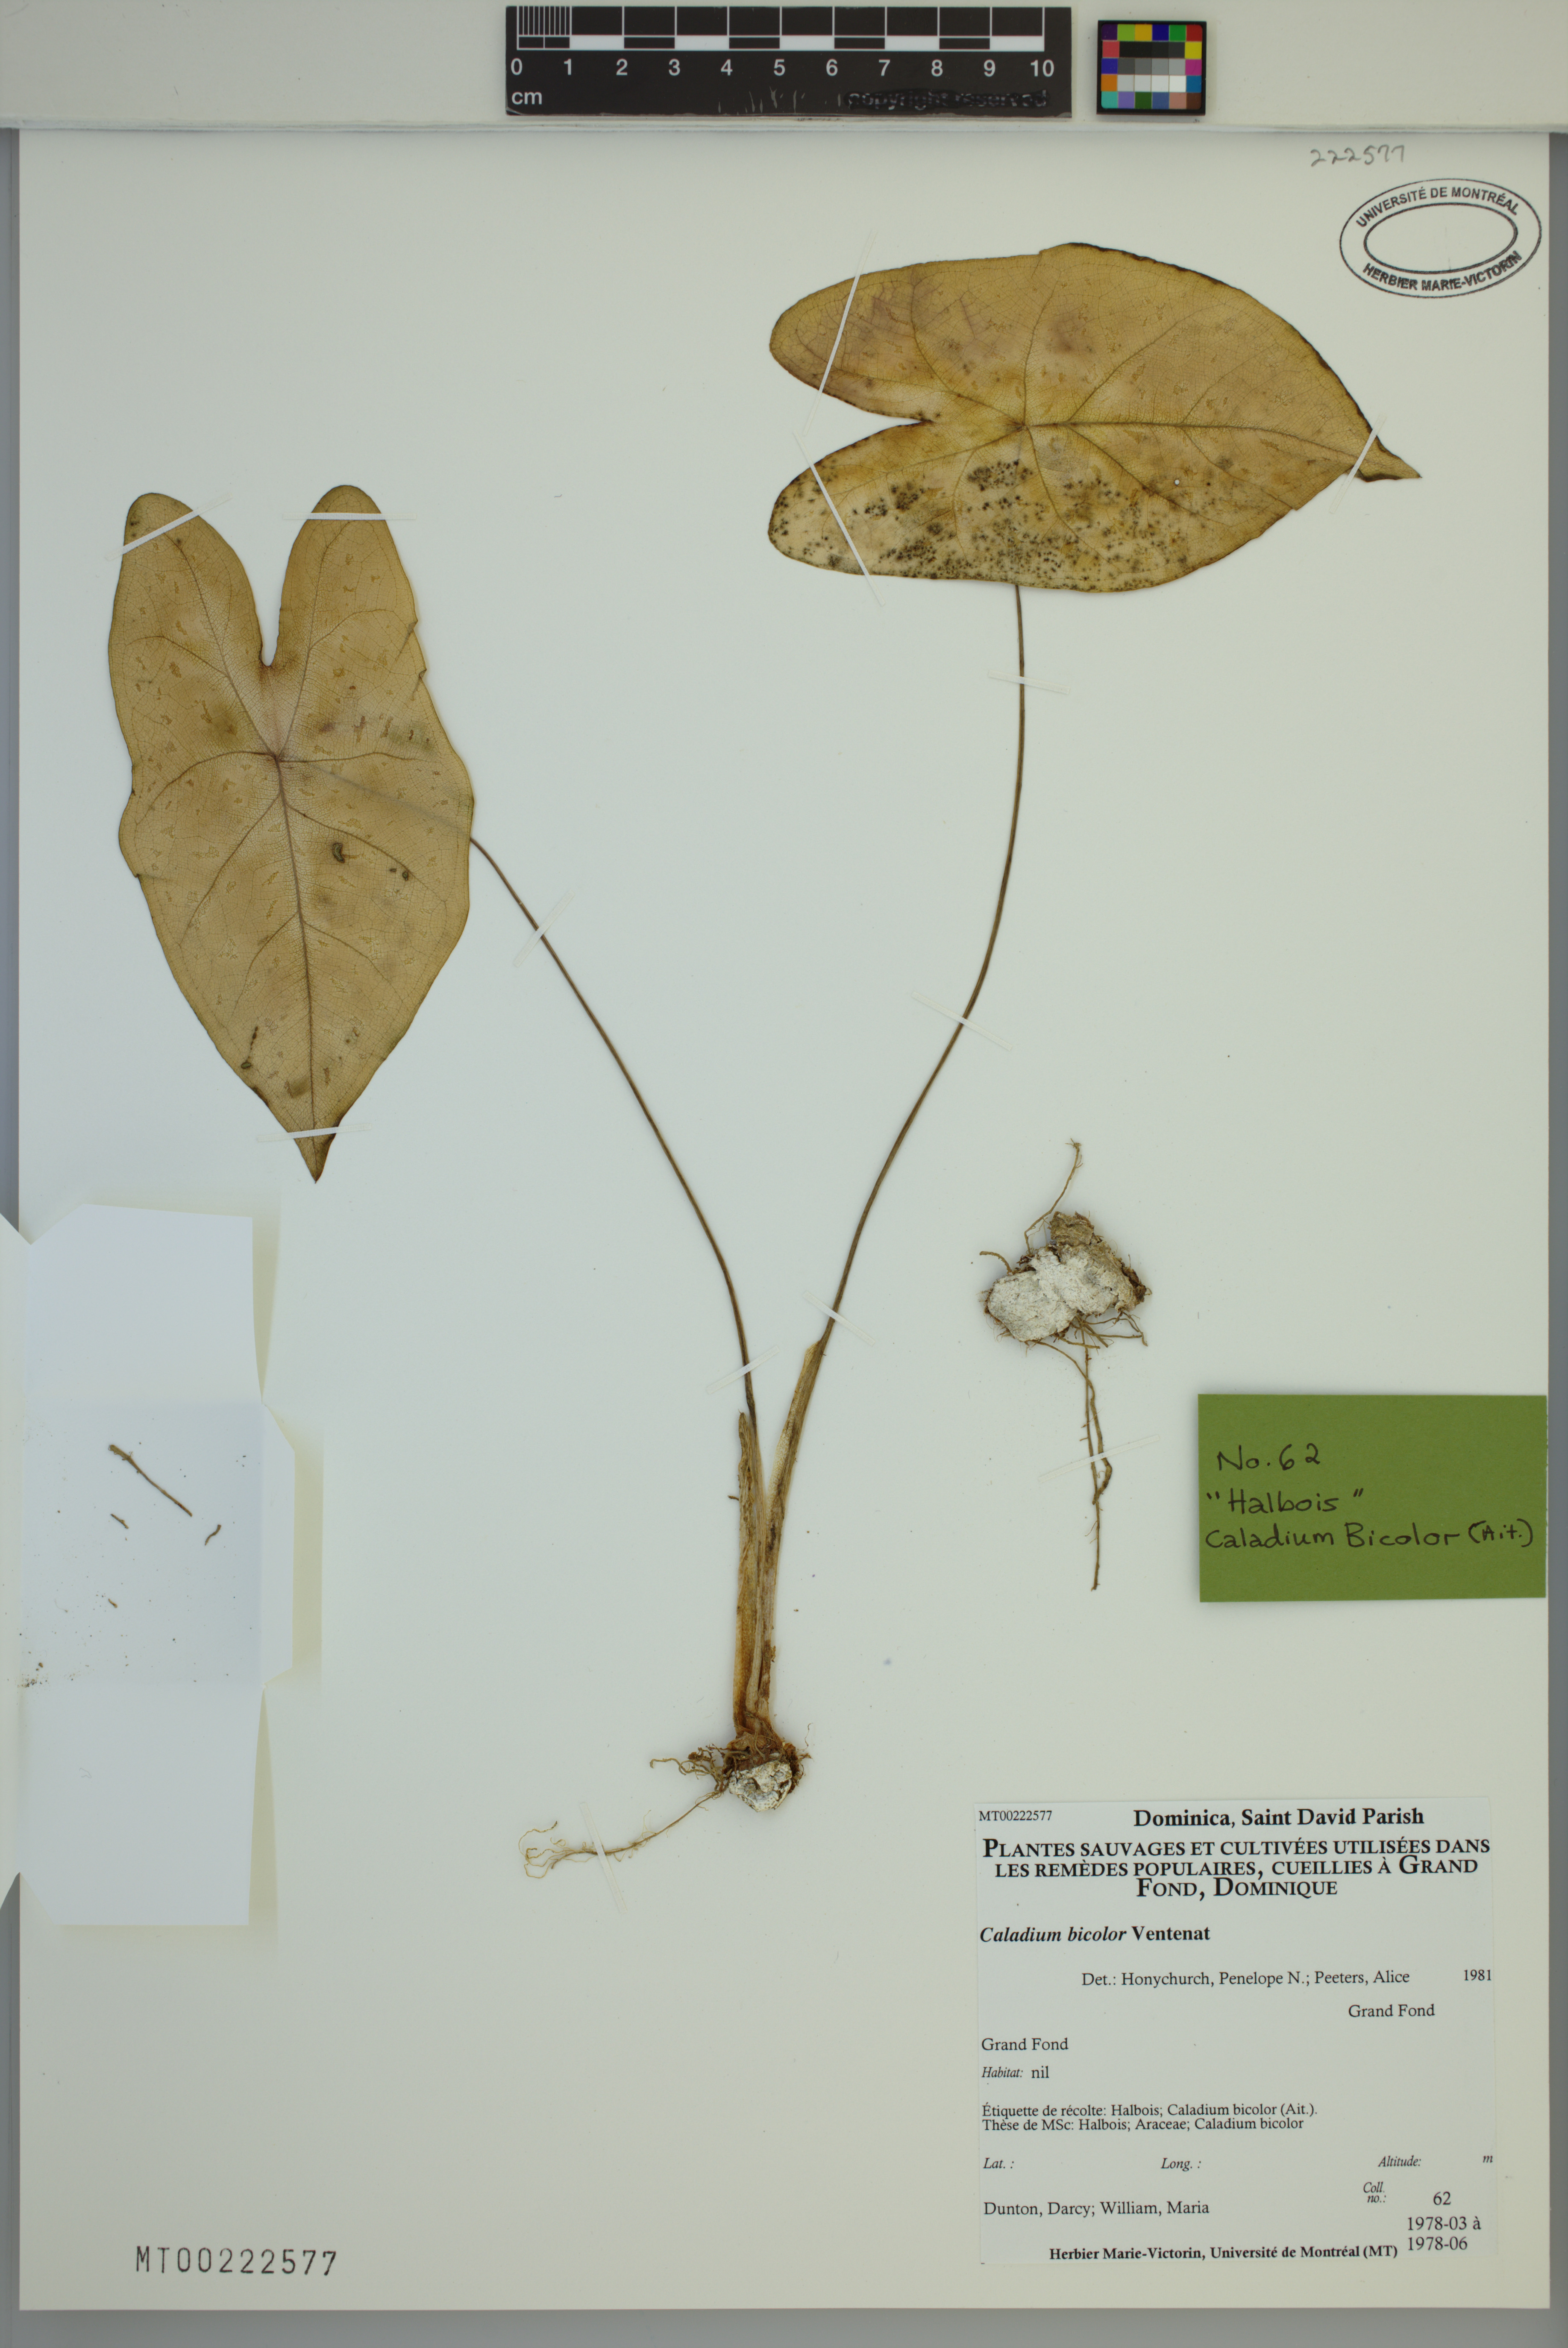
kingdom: Plantae
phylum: Tracheophyta
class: Liliopsida
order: Alismatales
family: Araceae
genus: Caladium
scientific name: Caladium bicolor
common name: Artist's pallet
